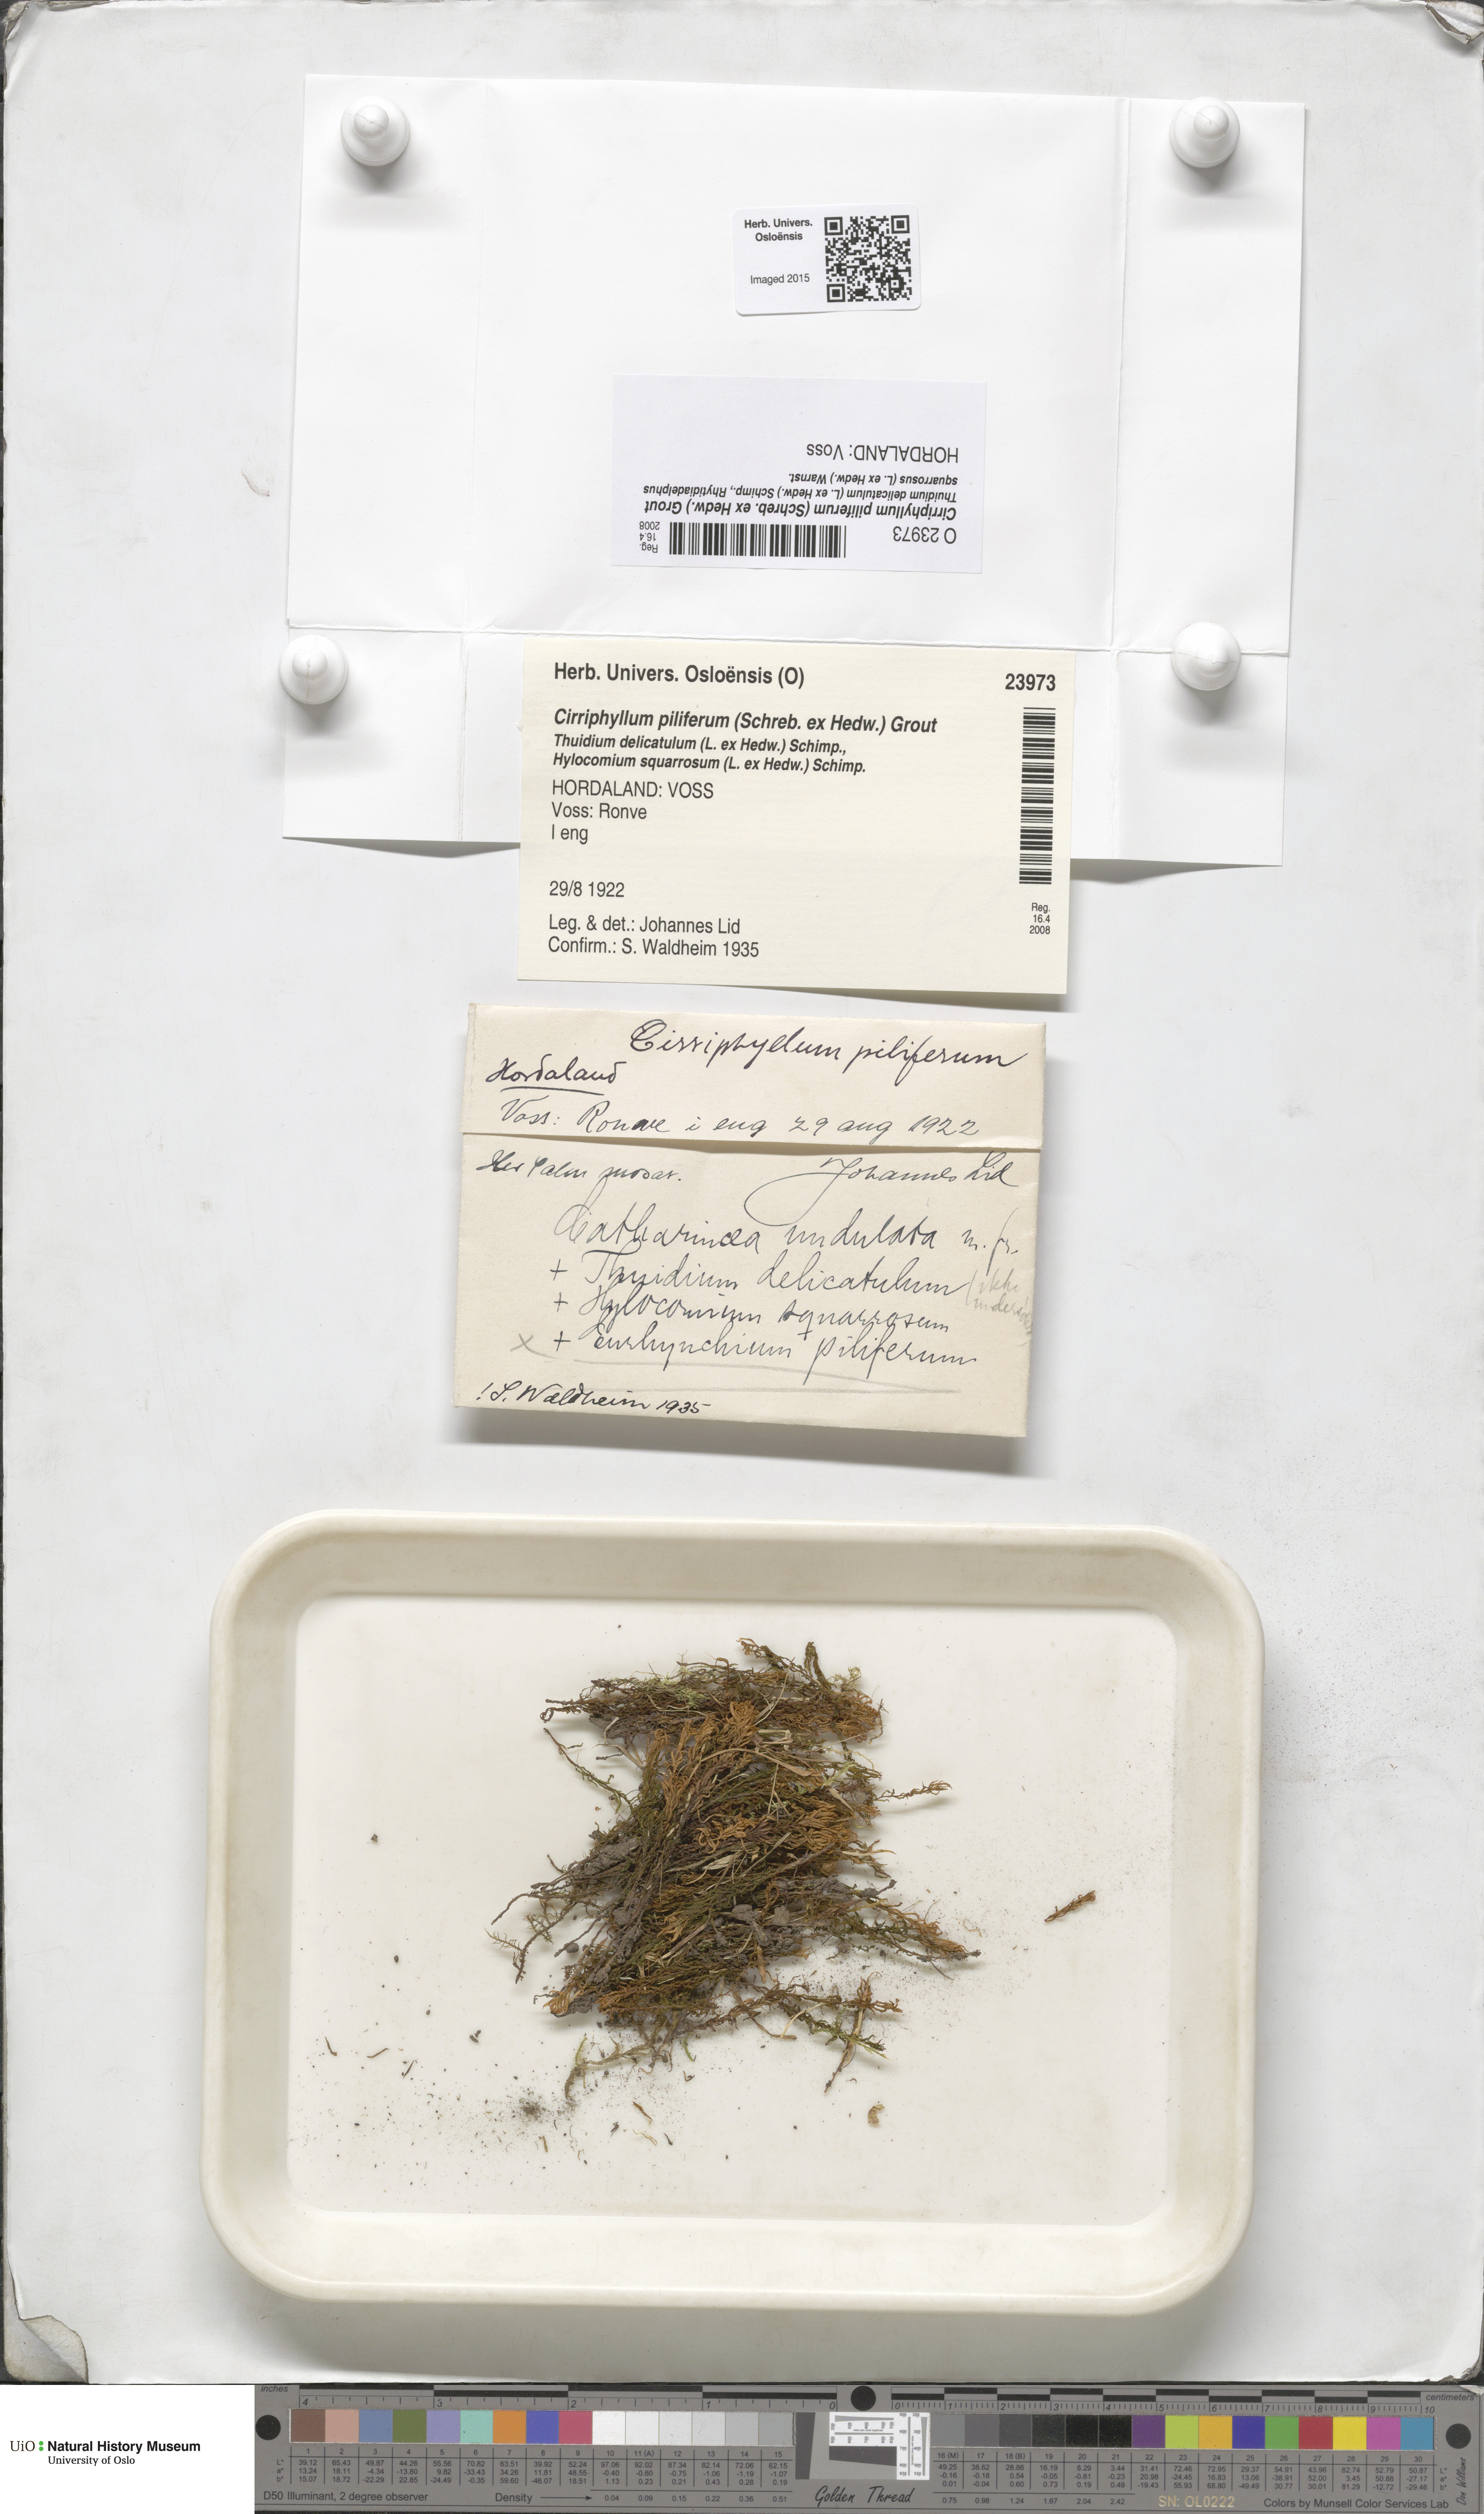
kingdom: Plantae
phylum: Bryophyta
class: Bryopsida
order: Hypnales
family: Brachytheciaceae
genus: Cirriphyllum
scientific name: Cirriphyllum piliferum
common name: Hair-pointed moss
